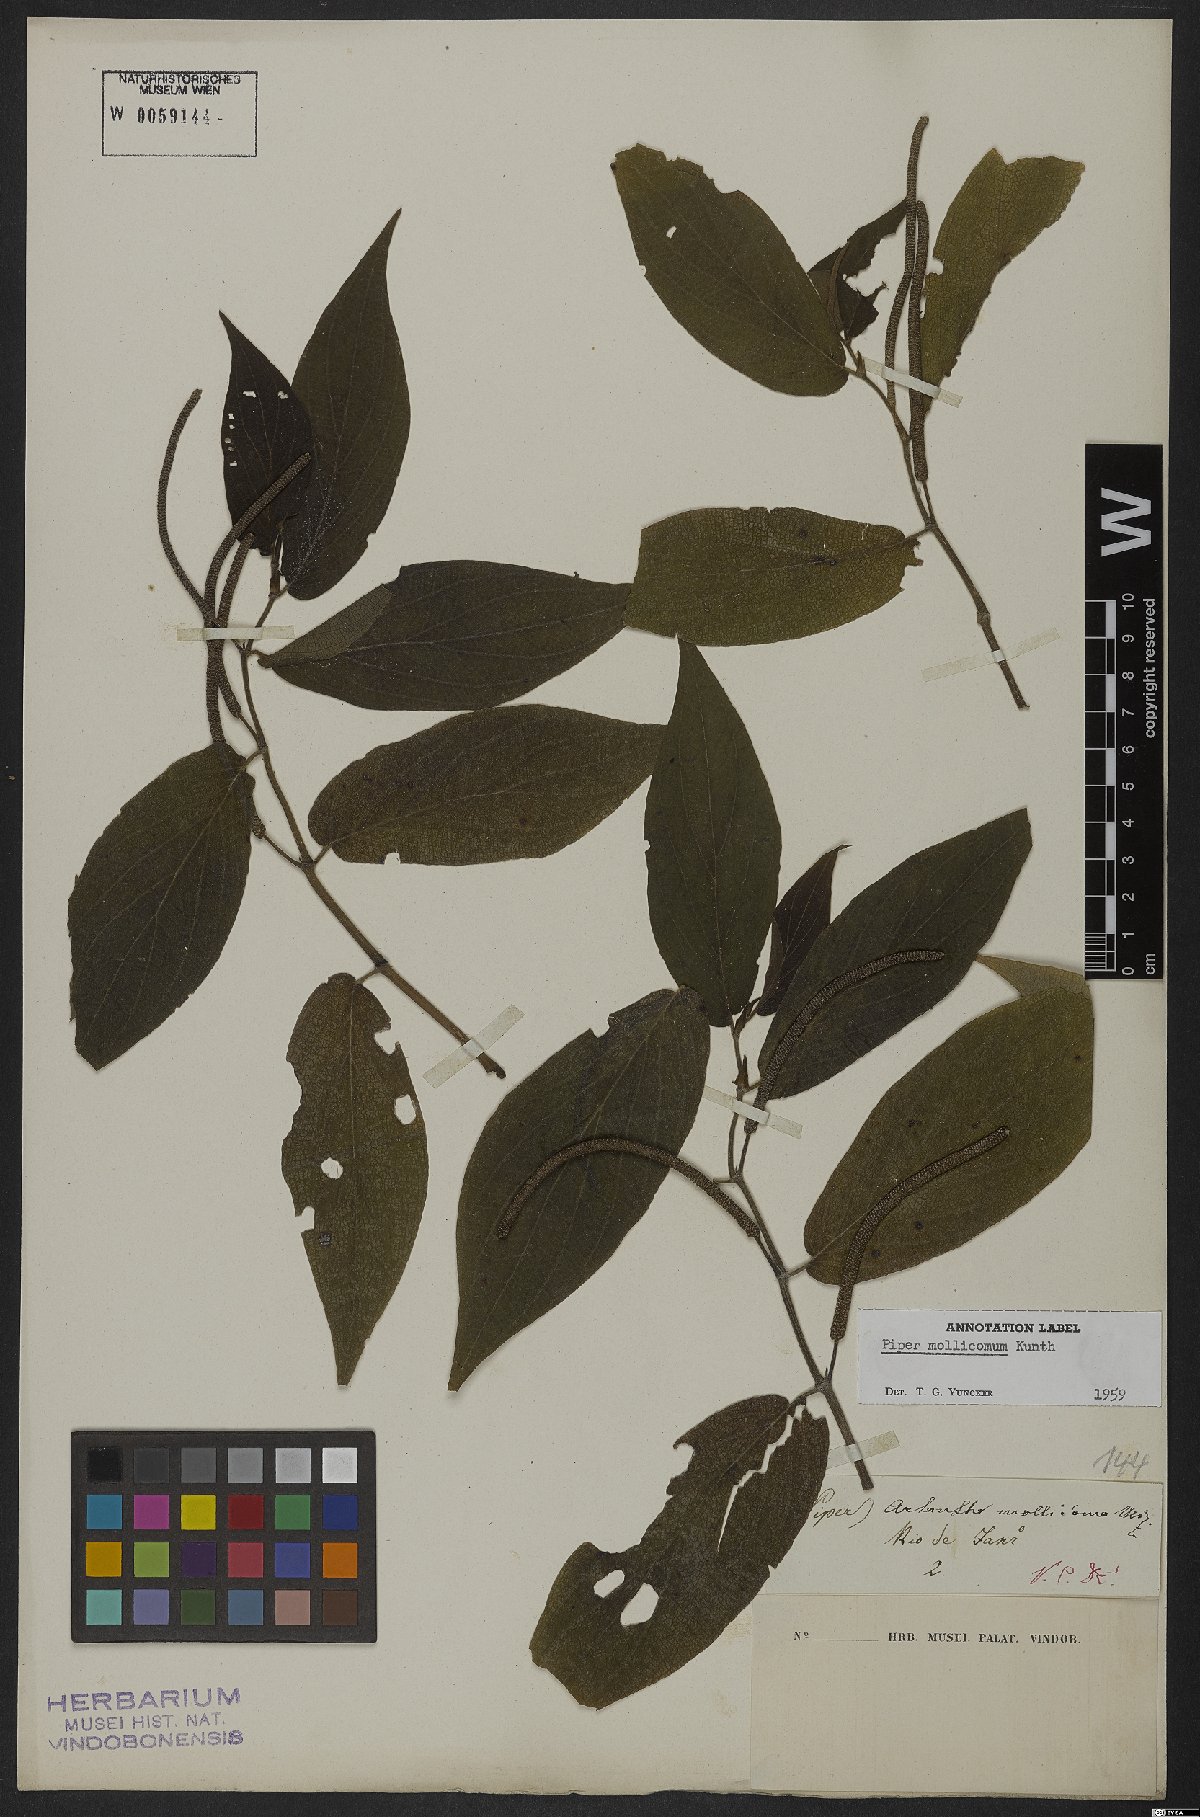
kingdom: Plantae
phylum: Tracheophyta
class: Magnoliopsida
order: Piperales
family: Piperaceae
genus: Piper
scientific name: Piper mollicomum
